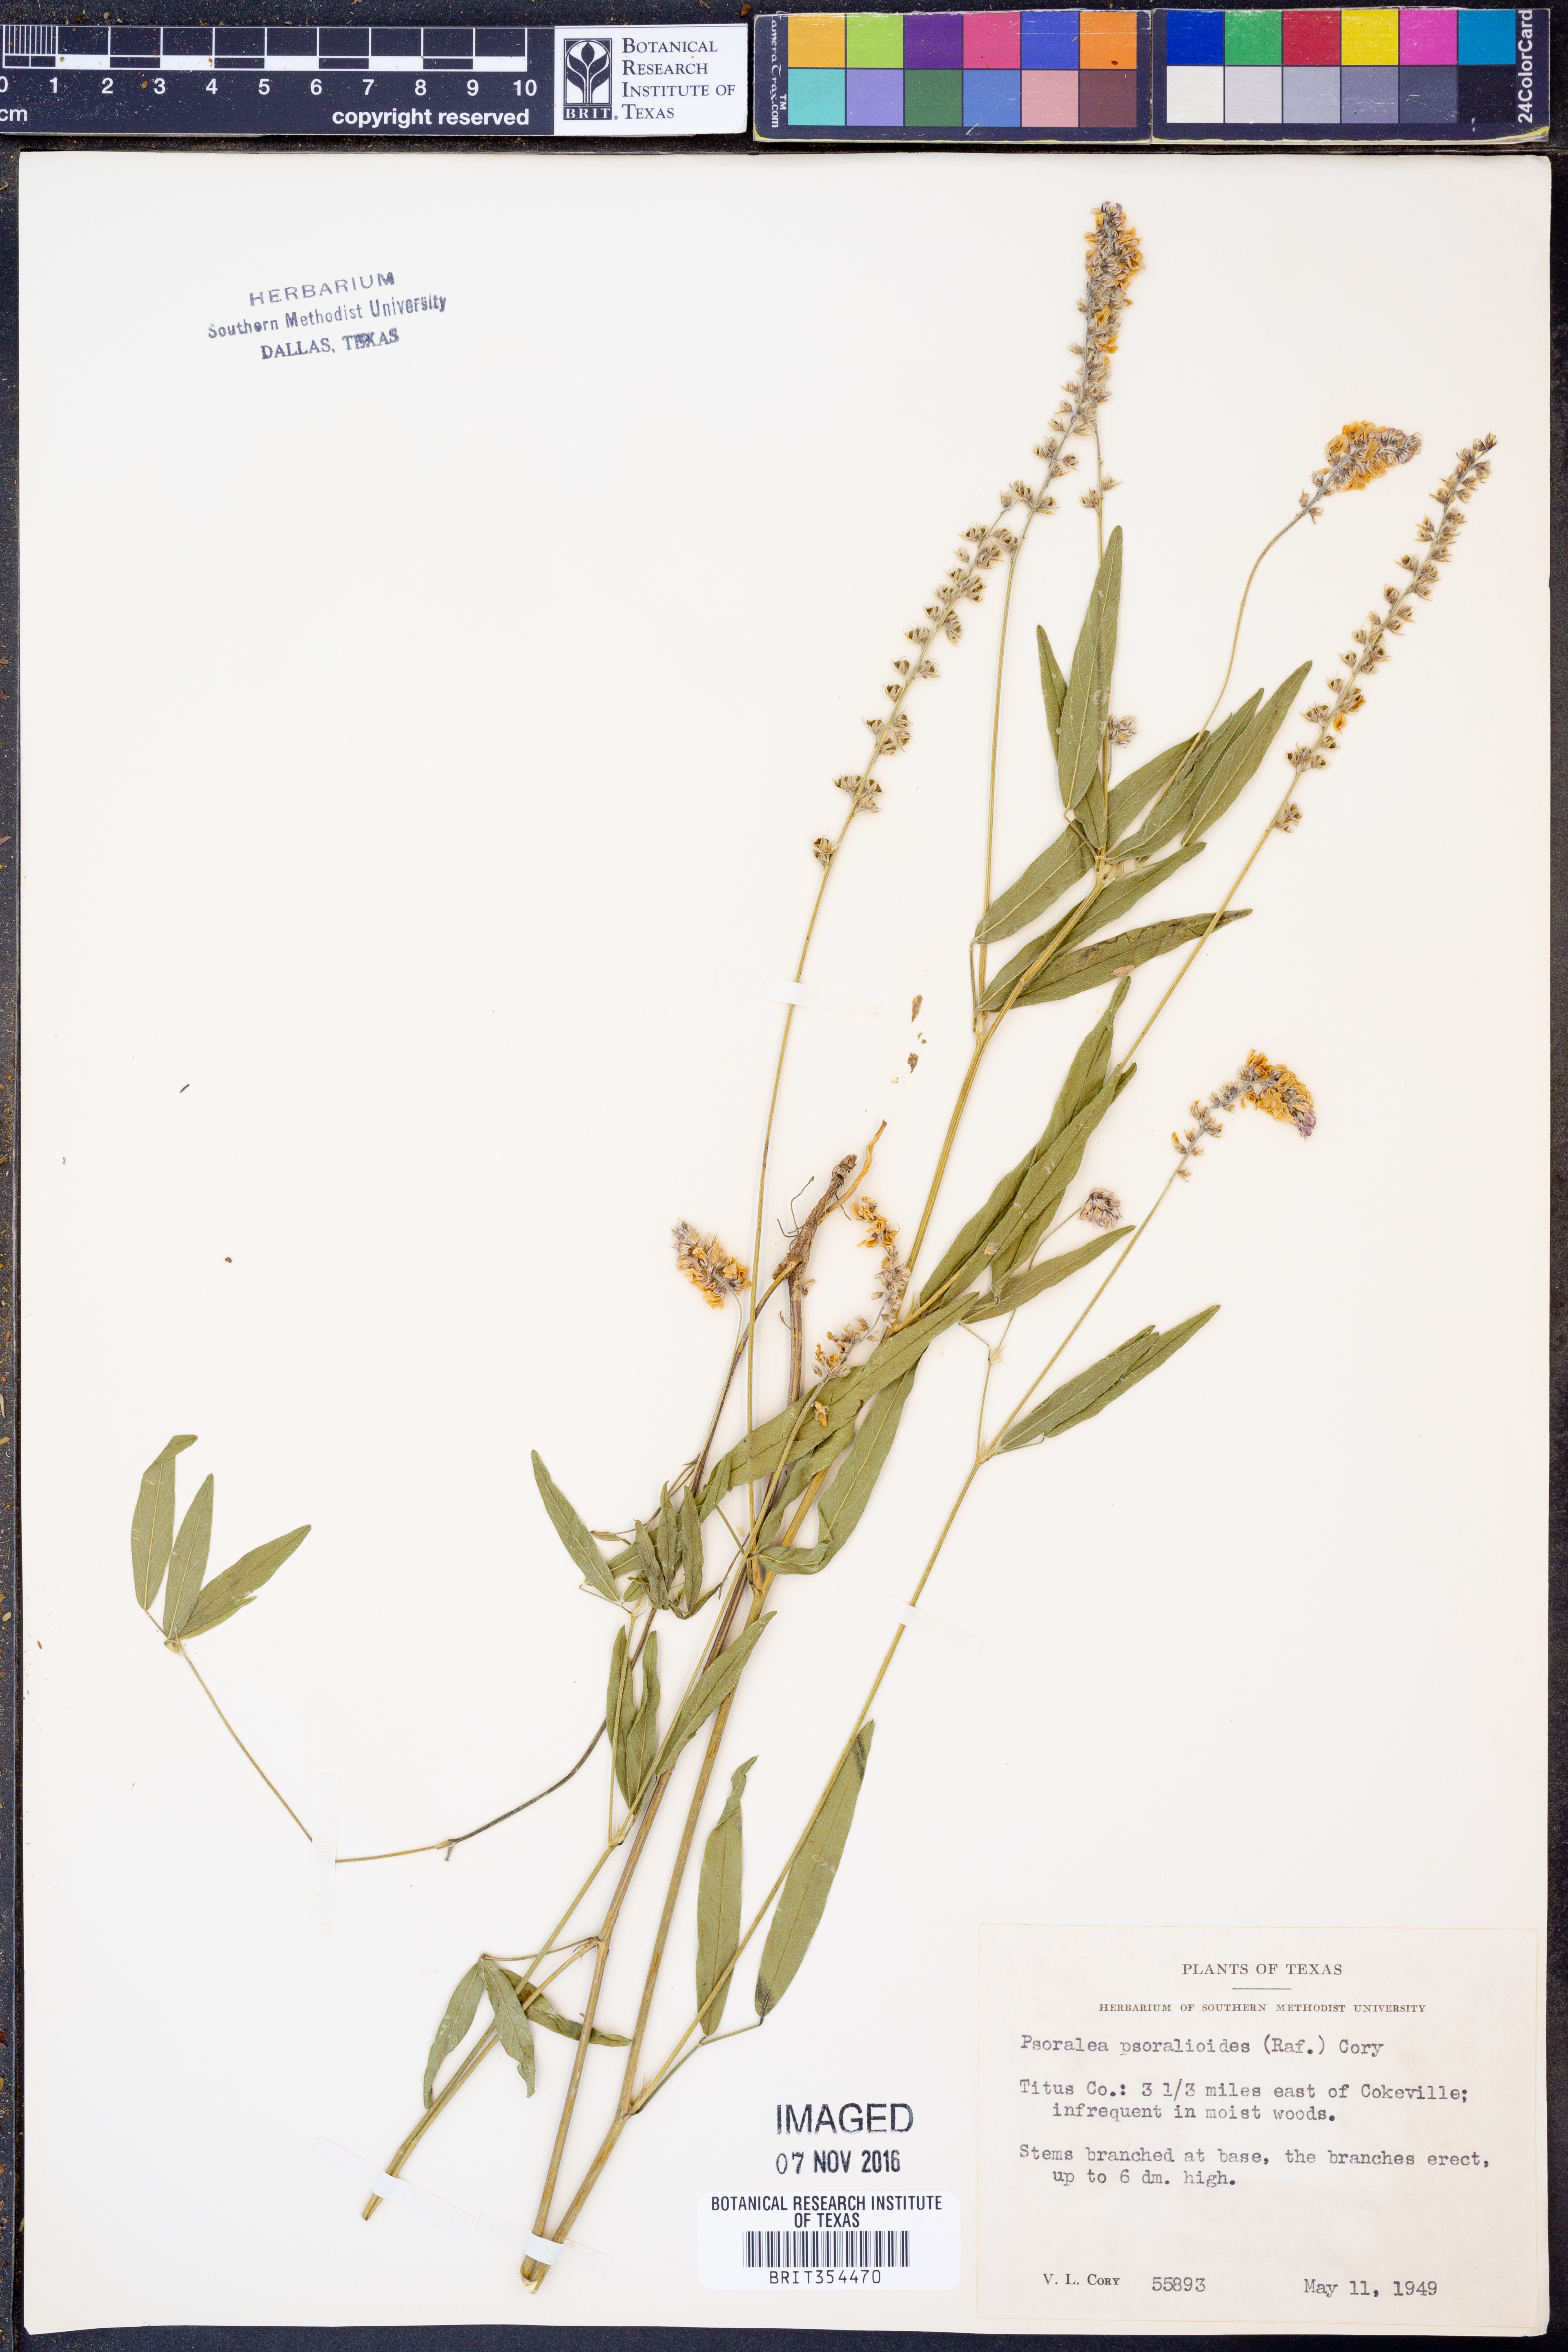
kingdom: Plantae
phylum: Tracheophyta
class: Magnoliopsida
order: Fabales
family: Fabaceae
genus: Orbexilum
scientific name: Orbexilum psoralioides
